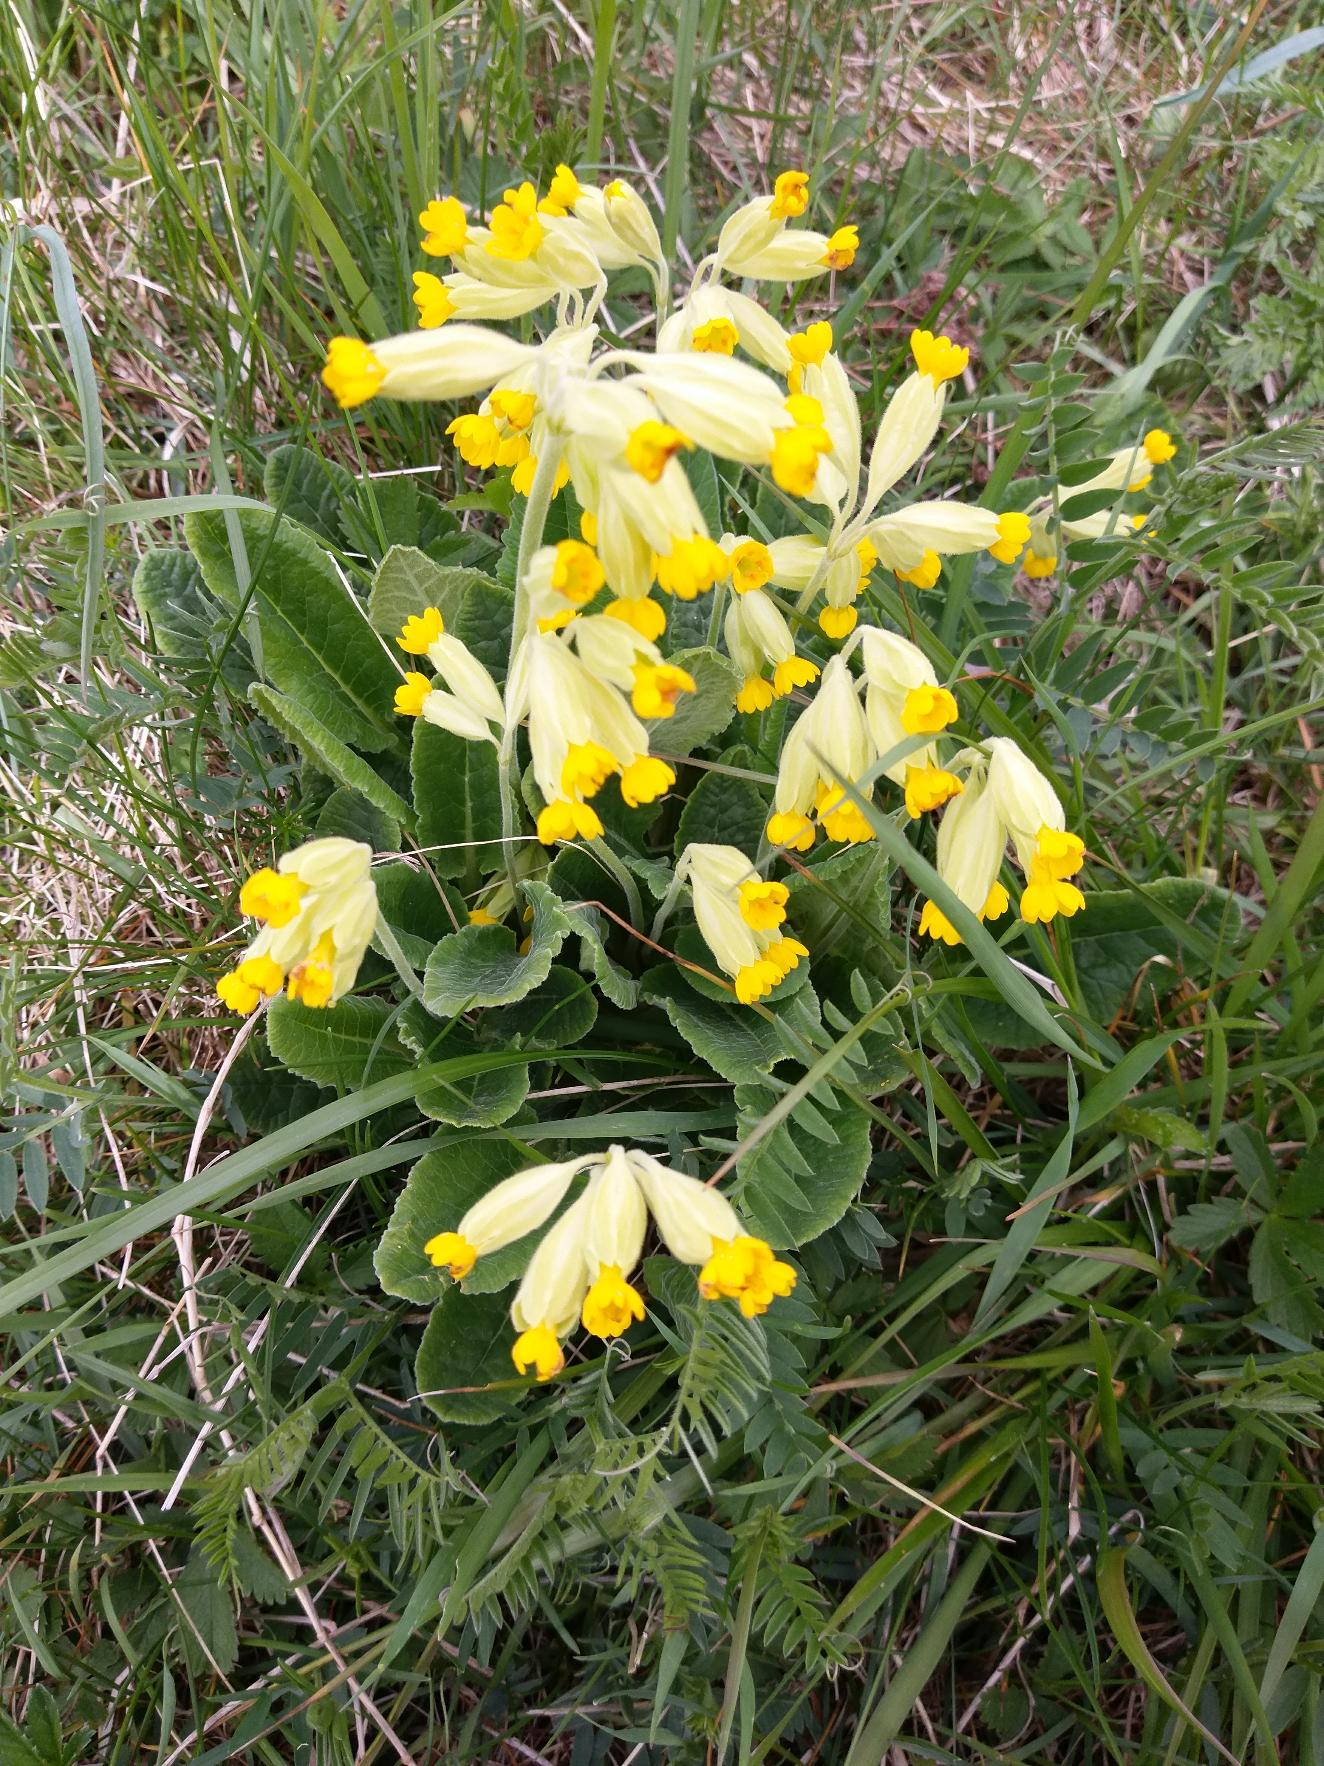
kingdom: Plantae
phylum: Tracheophyta
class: Magnoliopsida
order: Ericales
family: Primulaceae
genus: Primula
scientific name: Primula veris
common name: Hulkravet kodriver
